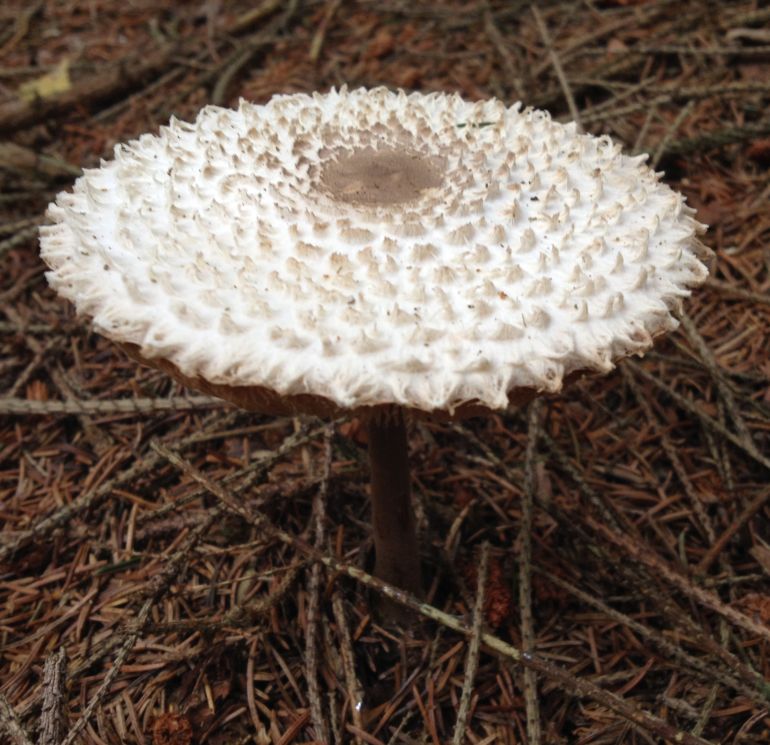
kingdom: Fungi
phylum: Basidiomycota
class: Agaricomycetes
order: Agaricales
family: Agaricaceae
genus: Leucoagaricus
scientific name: Leucoagaricus nympharum
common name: gran-silkehat
